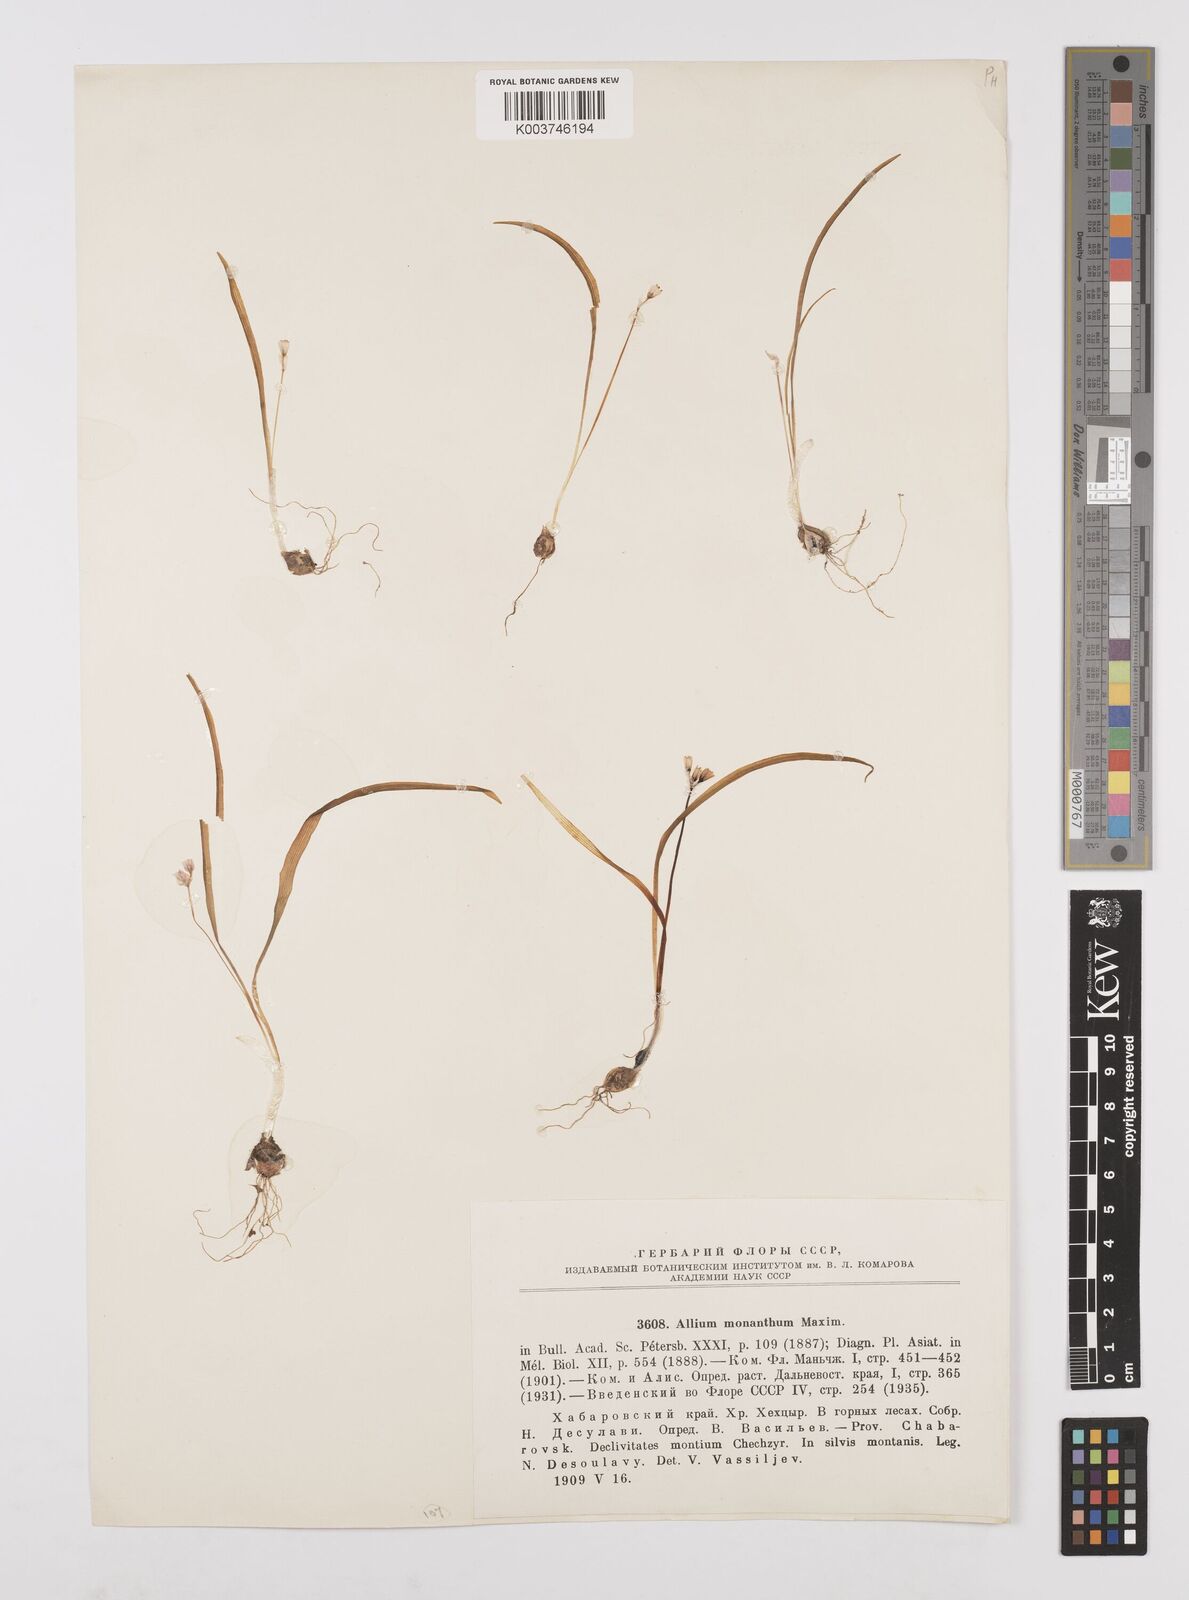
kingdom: Plantae
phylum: Tracheophyta
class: Liliopsida
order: Asparagales
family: Amaryllidaceae
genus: Allium
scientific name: Allium monanthum
